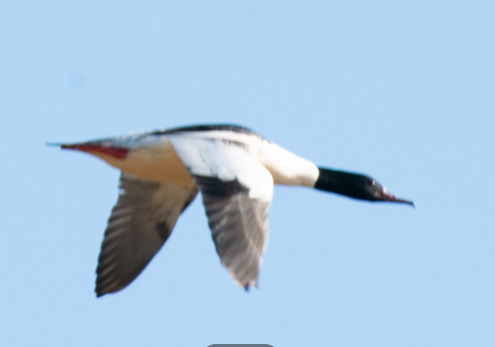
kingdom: Animalia
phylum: Chordata
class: Aves
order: Anseriformes
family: Anatidae
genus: Mergus
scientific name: Mergus merganser
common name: Stor skallesluger
